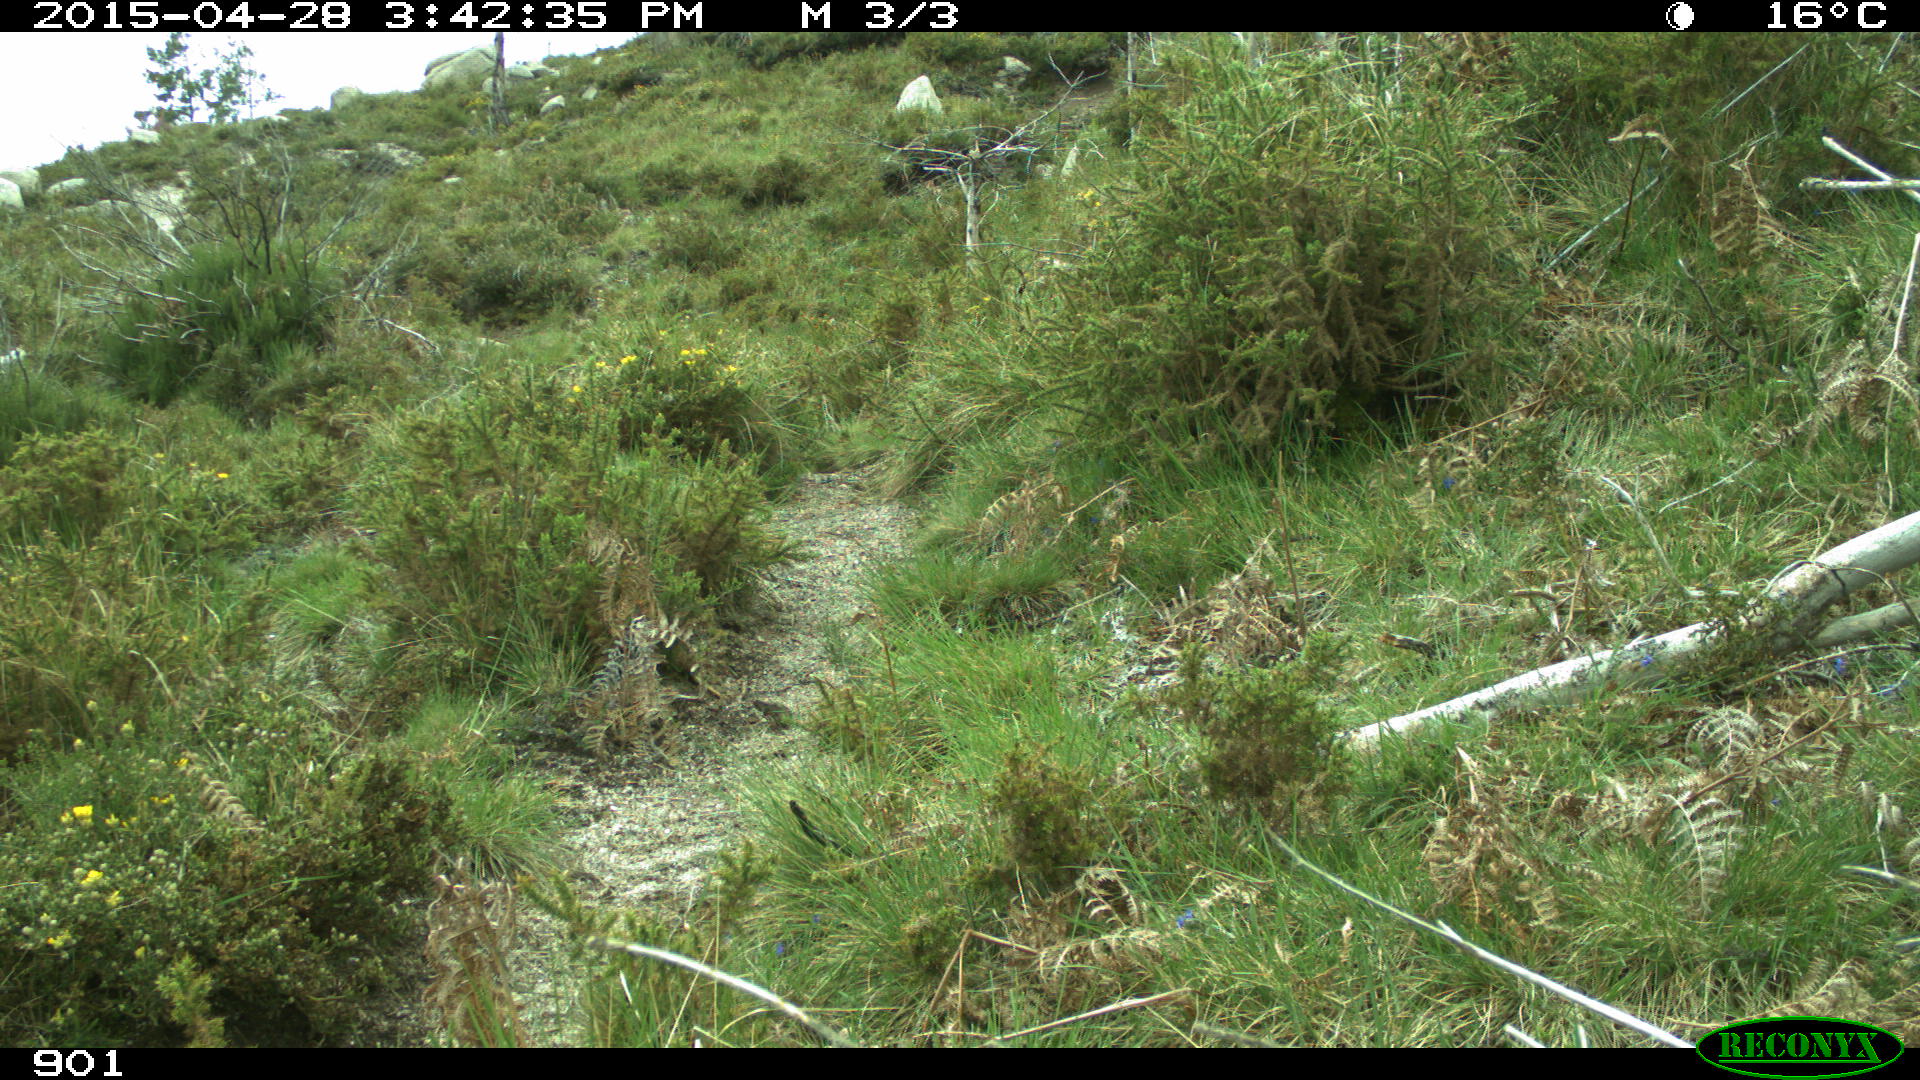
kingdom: Animalia
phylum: Chordata
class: Mammalia
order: Carnivora
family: Canidae
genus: Vulpes
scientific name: Vulpes vulpes
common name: Red fox
